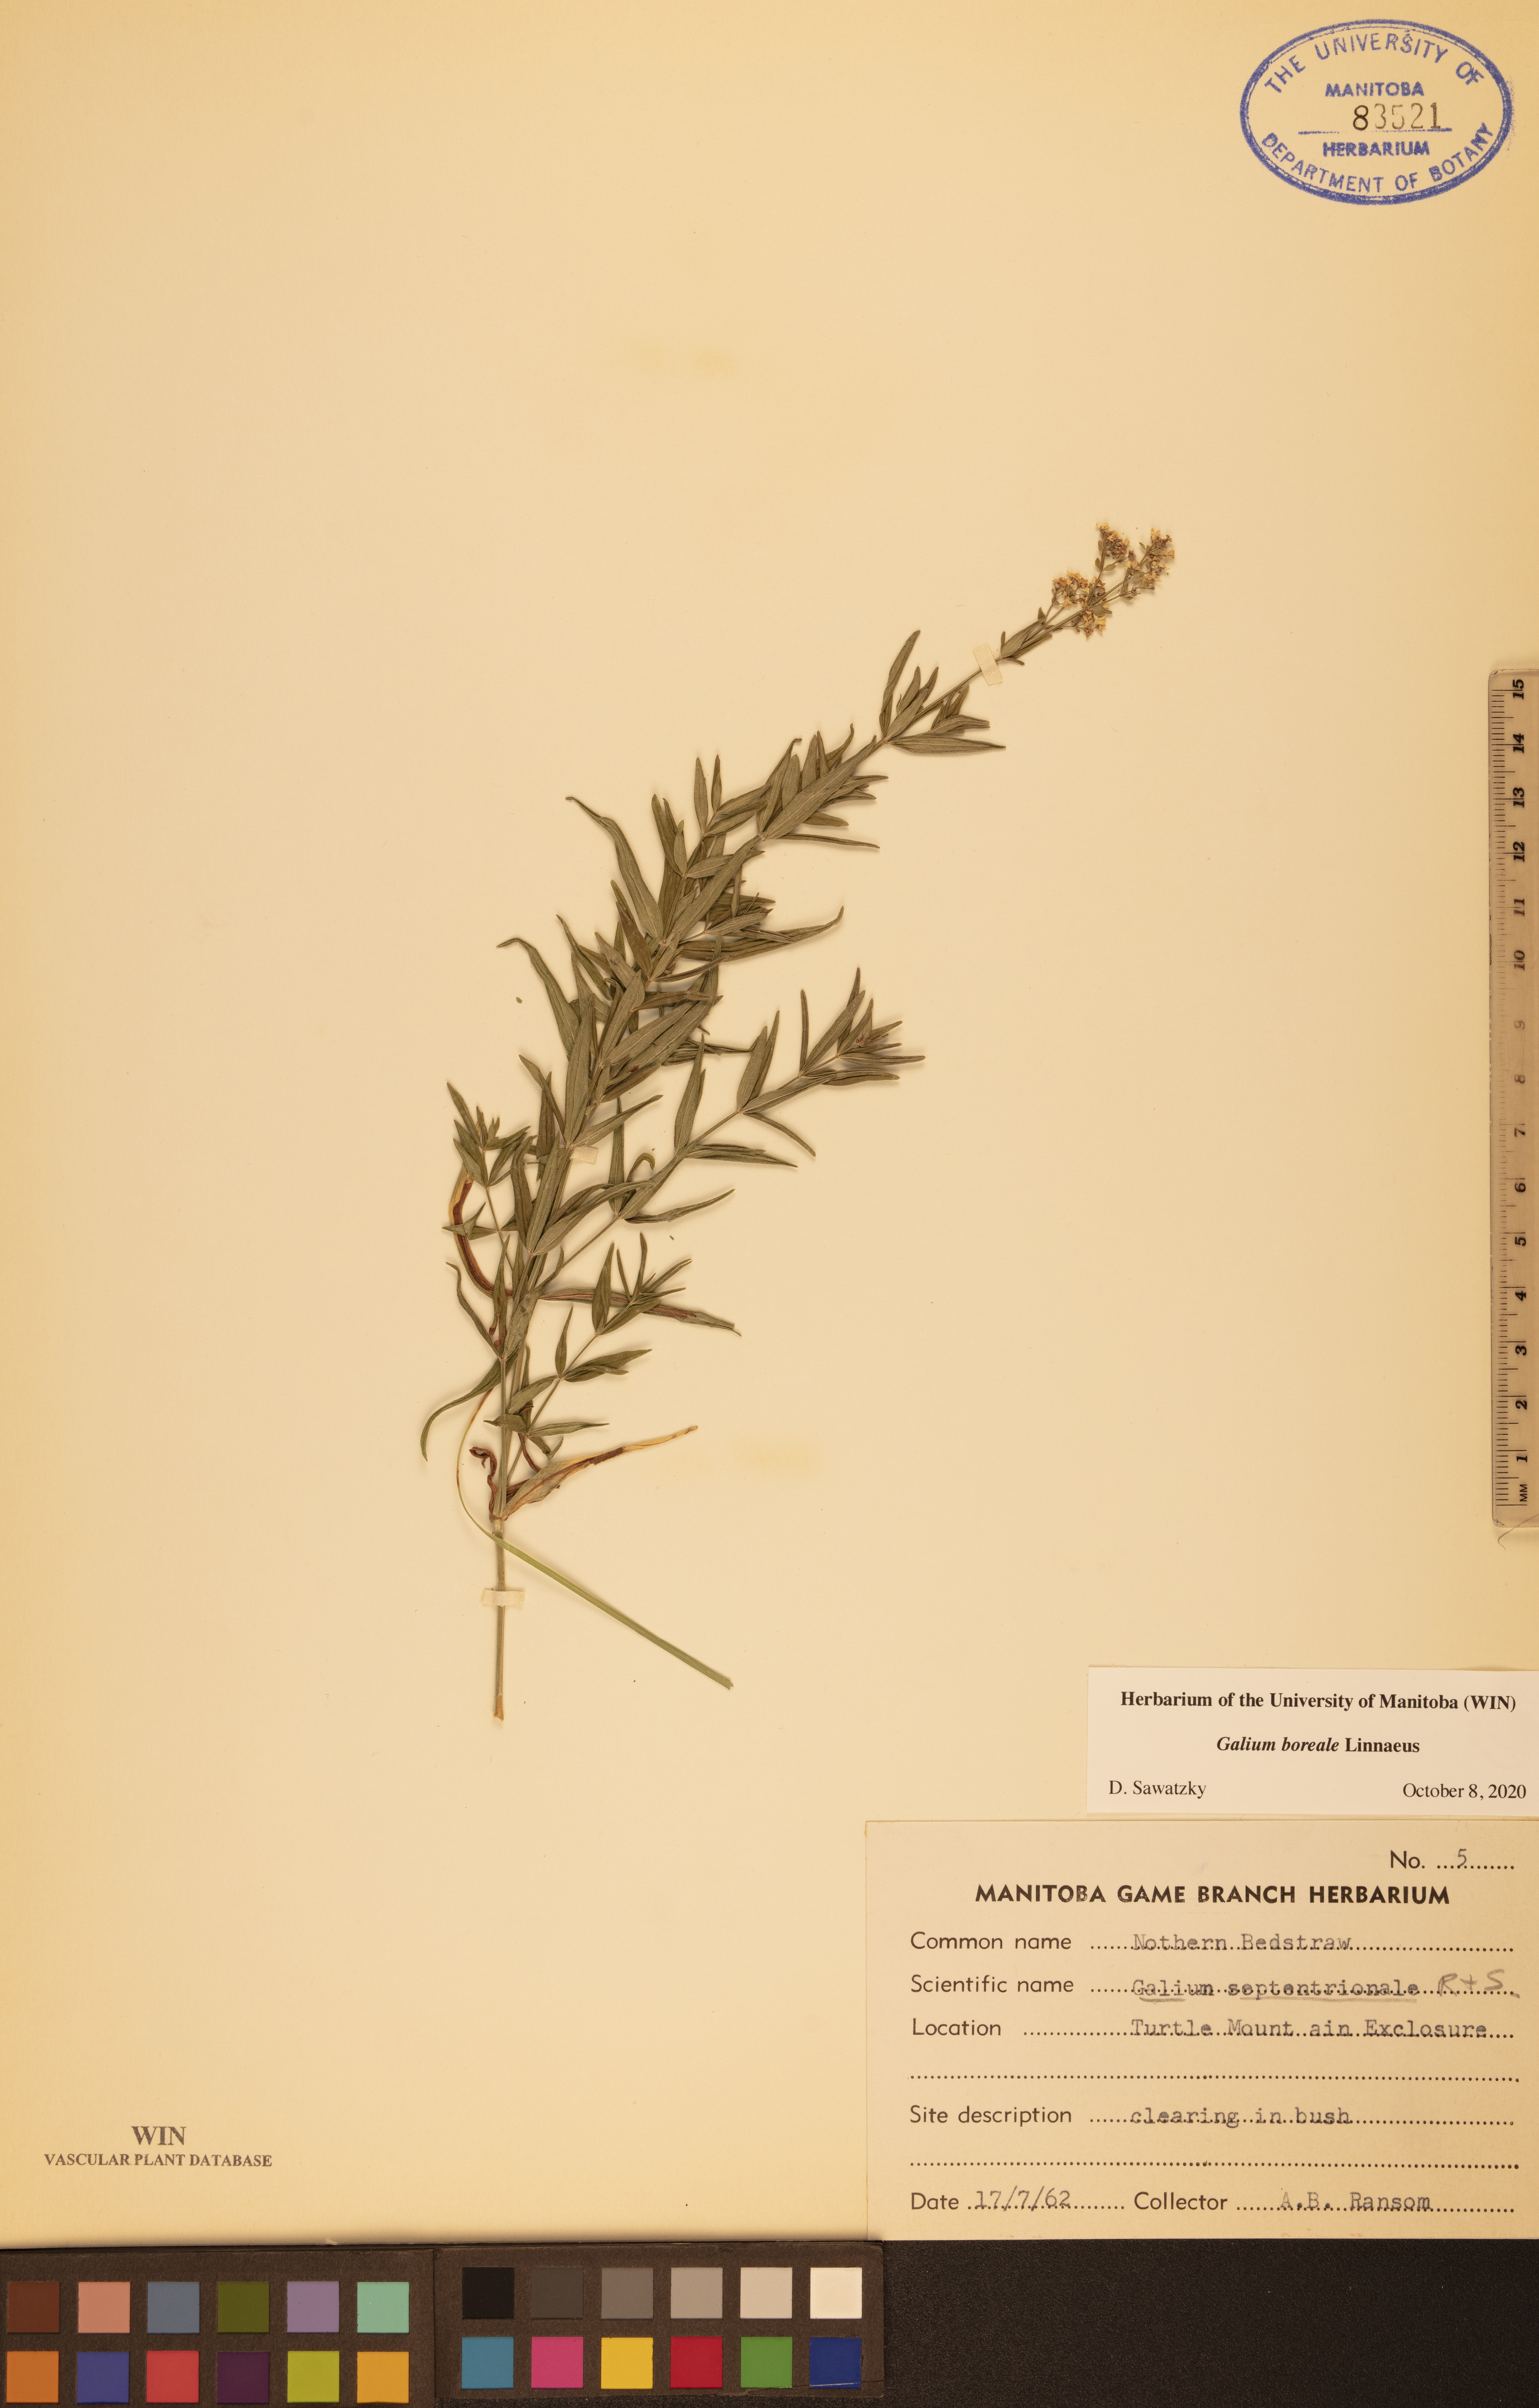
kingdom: Plantae
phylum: Tracheophyta
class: Magnoliopsida
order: Gentianales
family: Rubiaceae
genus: Galium
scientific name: Galium boreale
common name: Northern bedstraw
